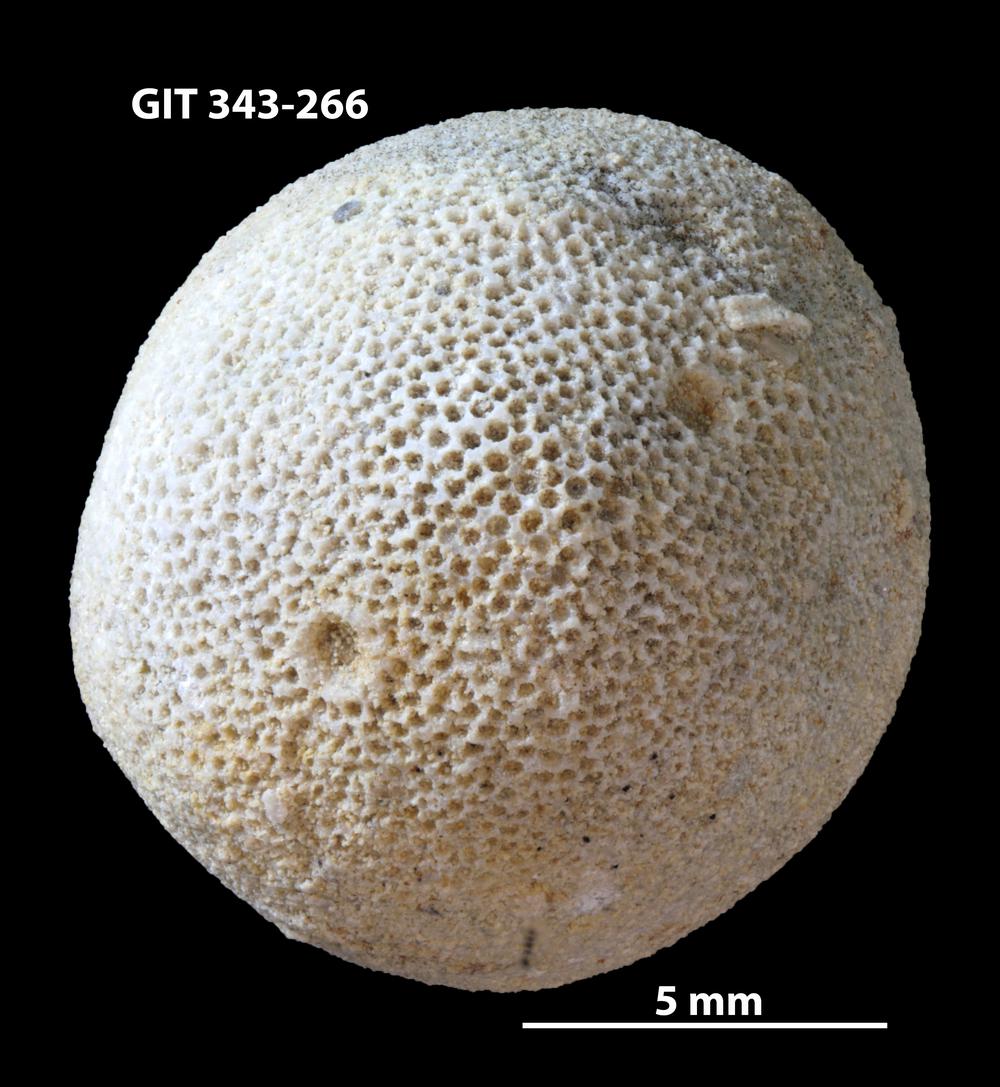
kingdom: Animalia
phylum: Bryozoa
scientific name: Bryozoa
